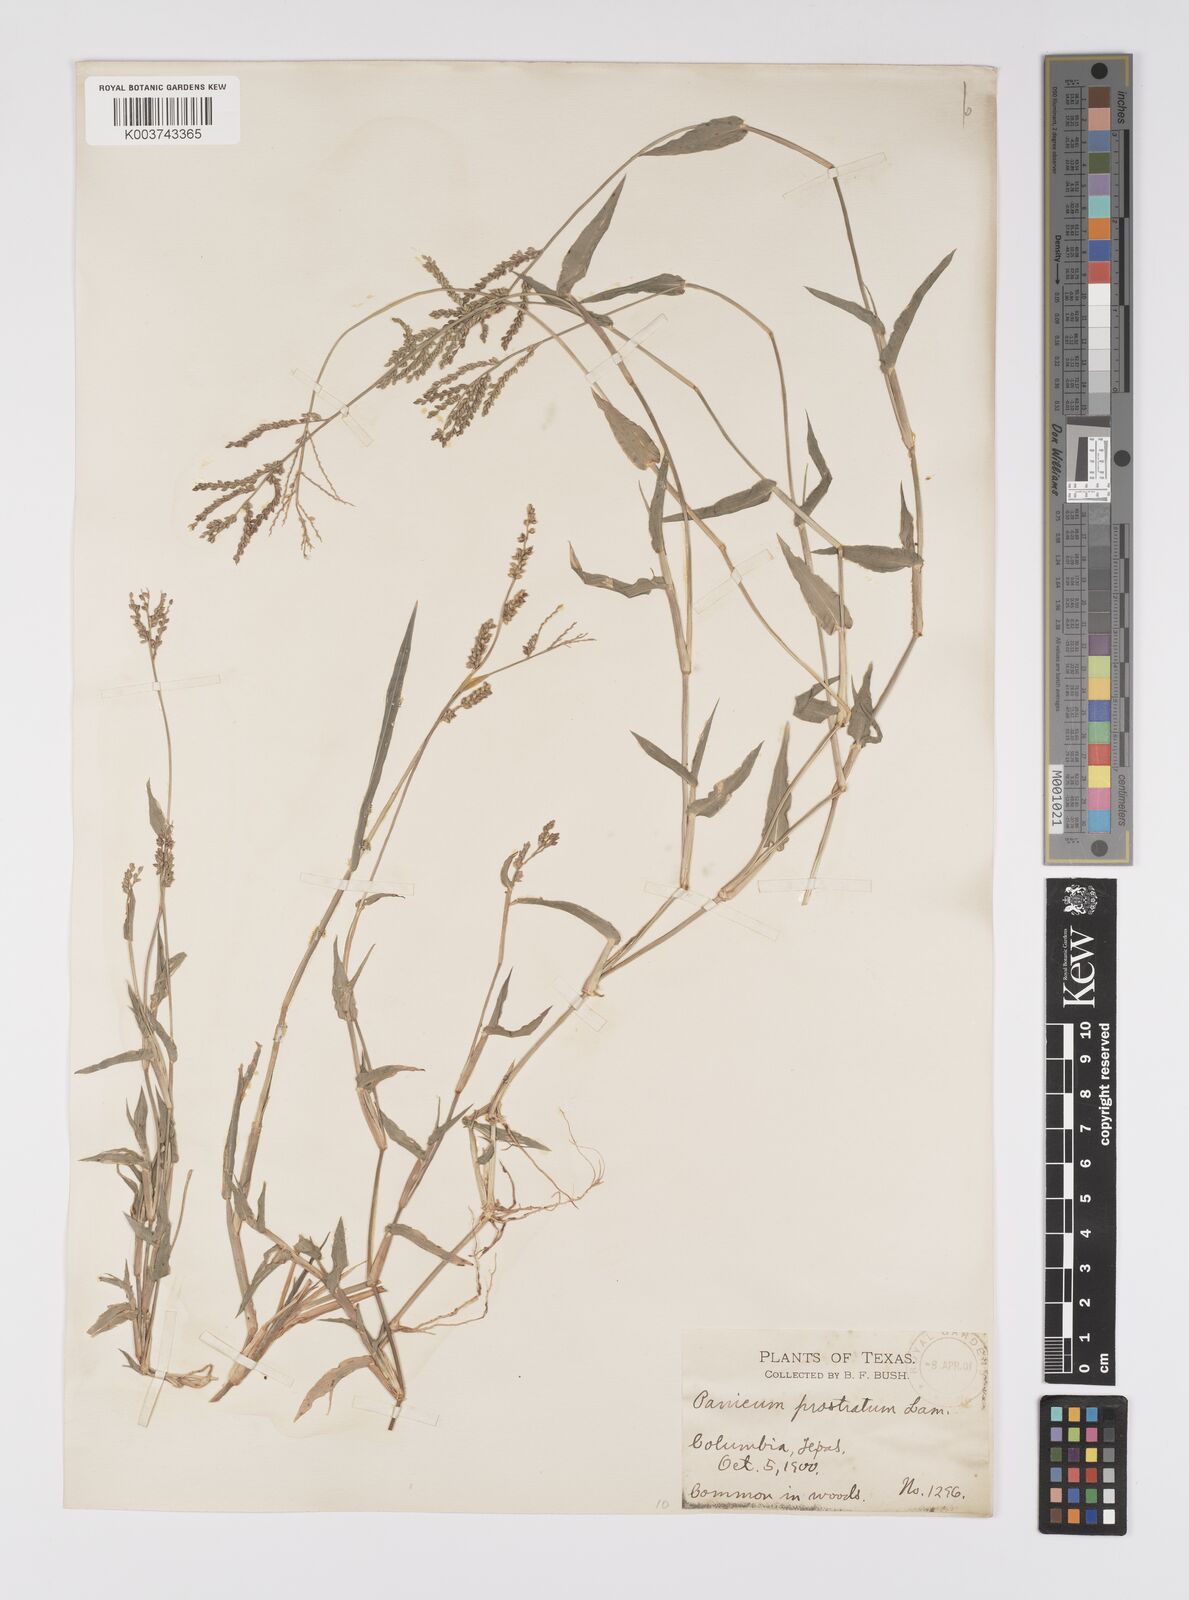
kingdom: Plantae
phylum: Tracheophyta
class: Liliopsida
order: Poales
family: Poaceae
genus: Urochloa
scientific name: Urochloa reptans
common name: Sprawling signalgrass
